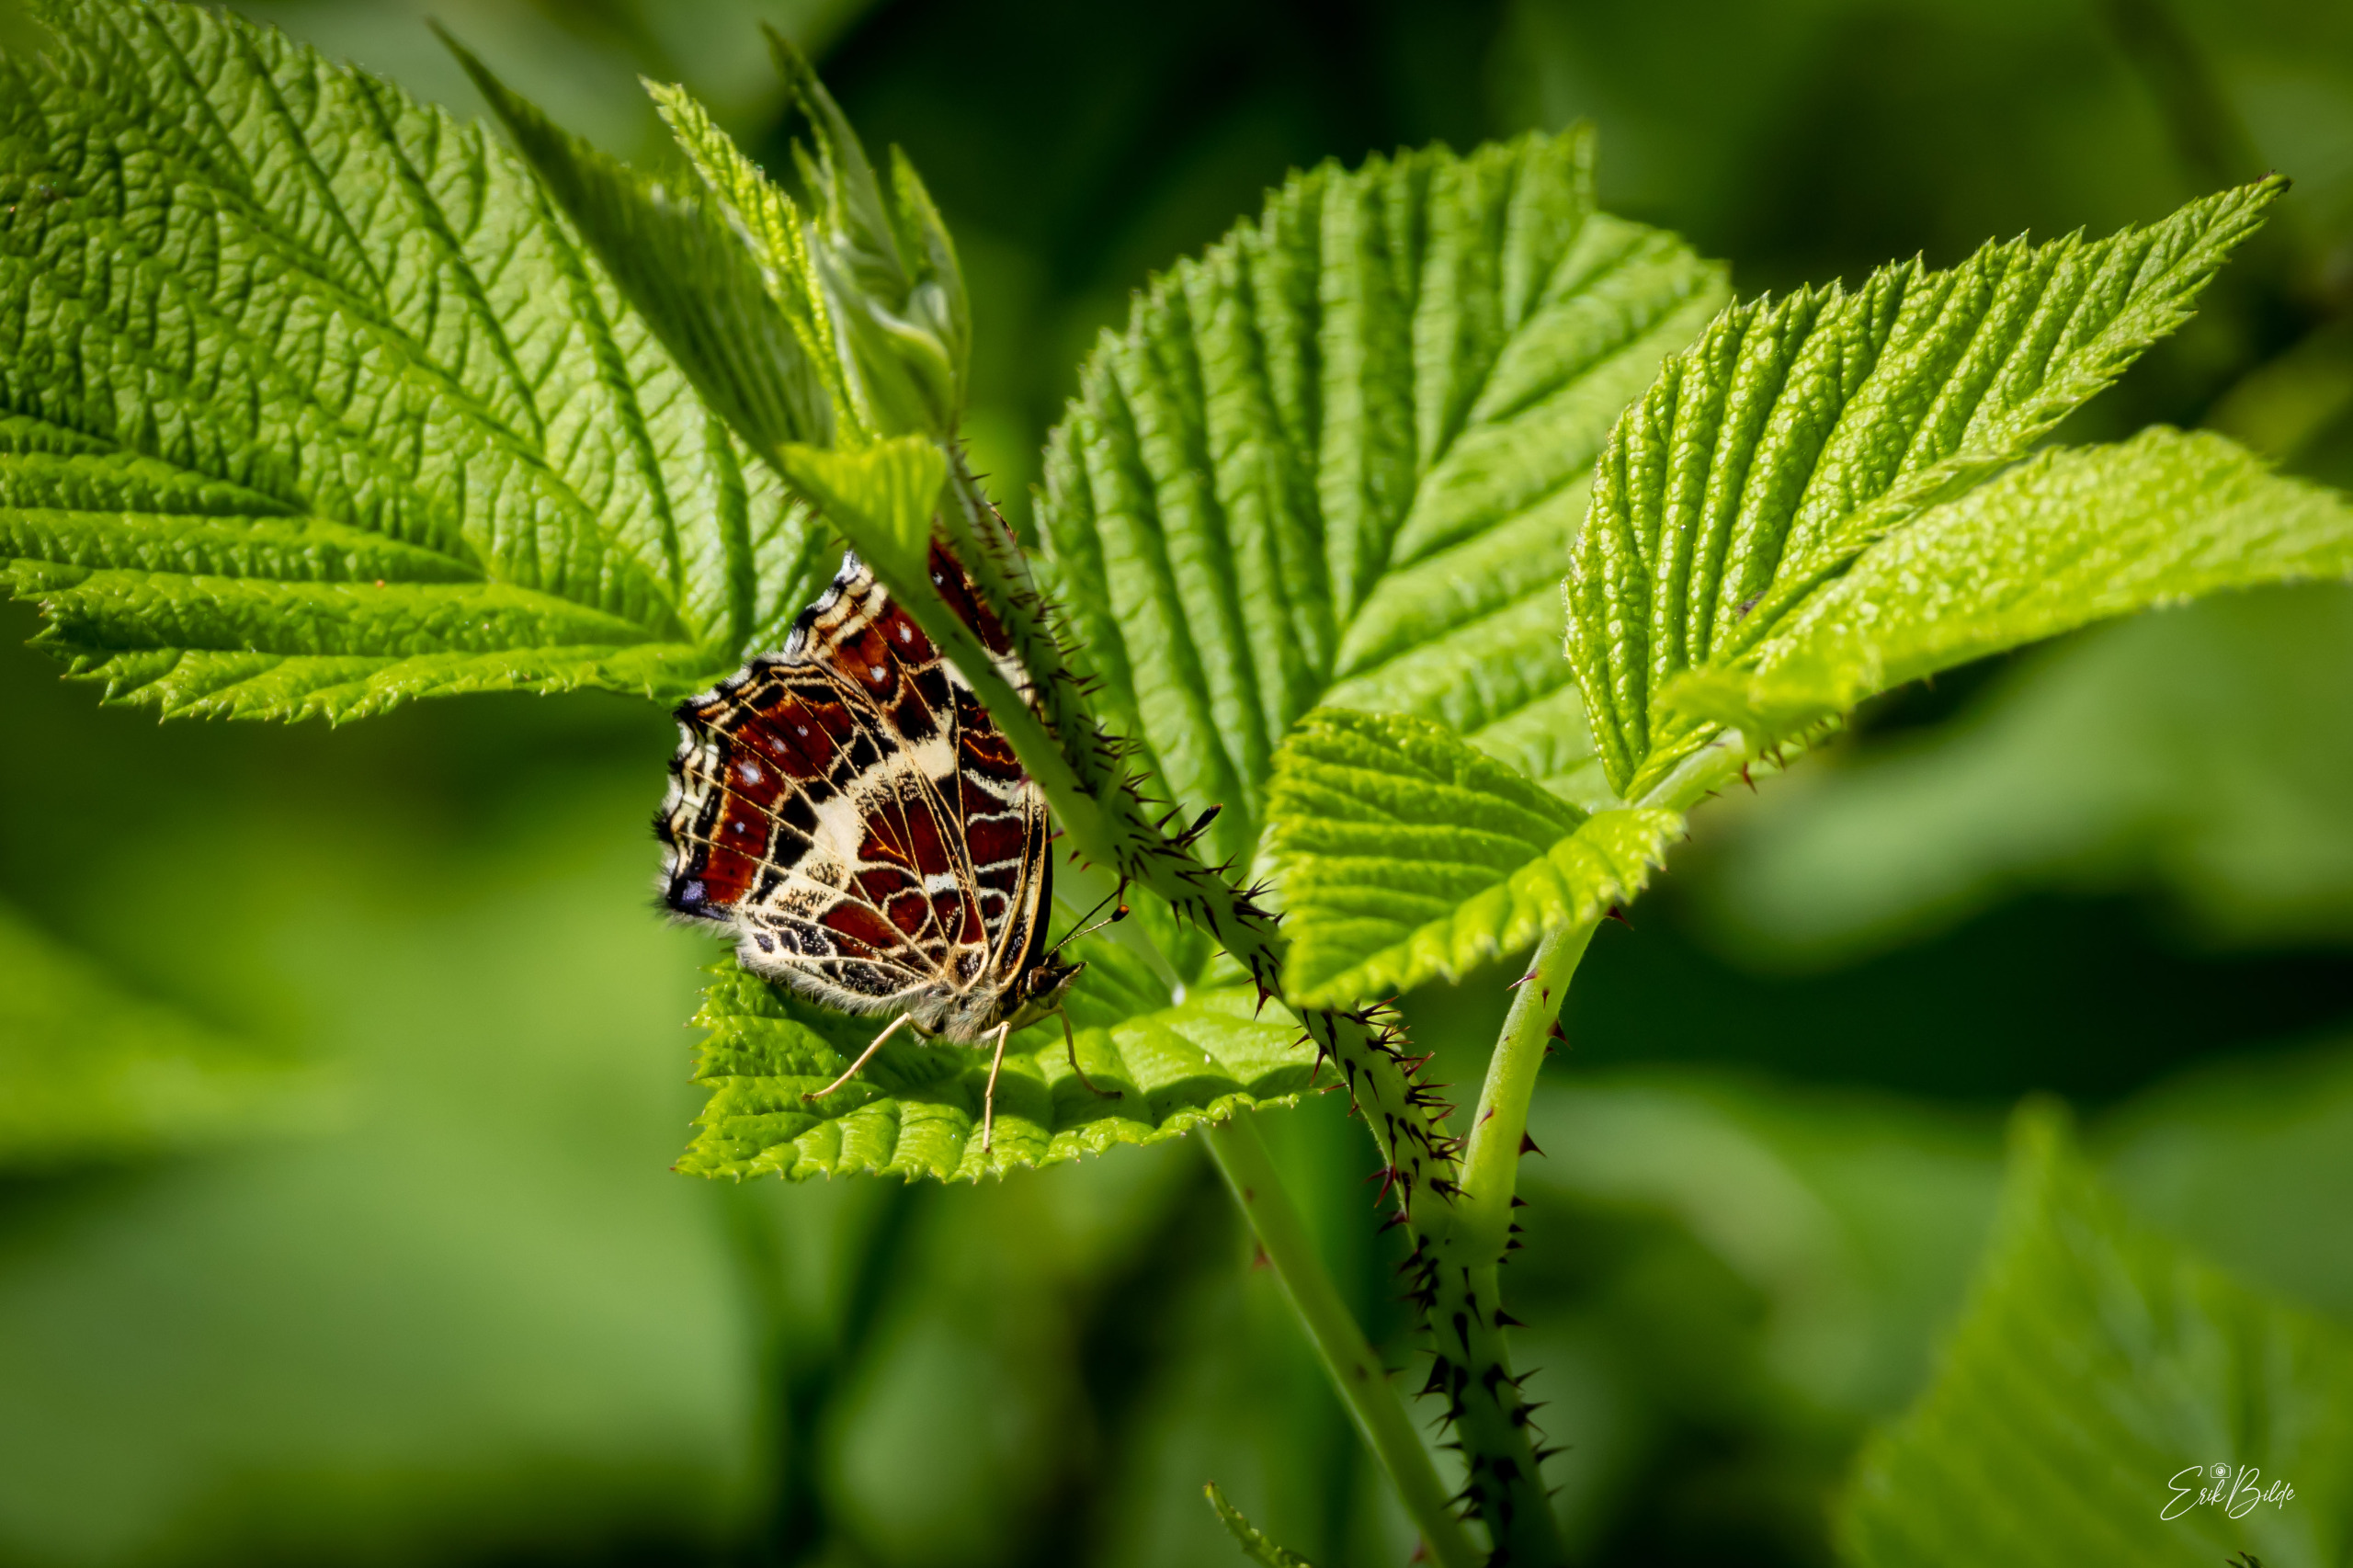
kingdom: Animalia
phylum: Arthropoda
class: Insecta
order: Lepidoptera
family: Nymphalidae
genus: Araschnia
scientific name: Araschnia levana
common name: Nældesommerfugl
